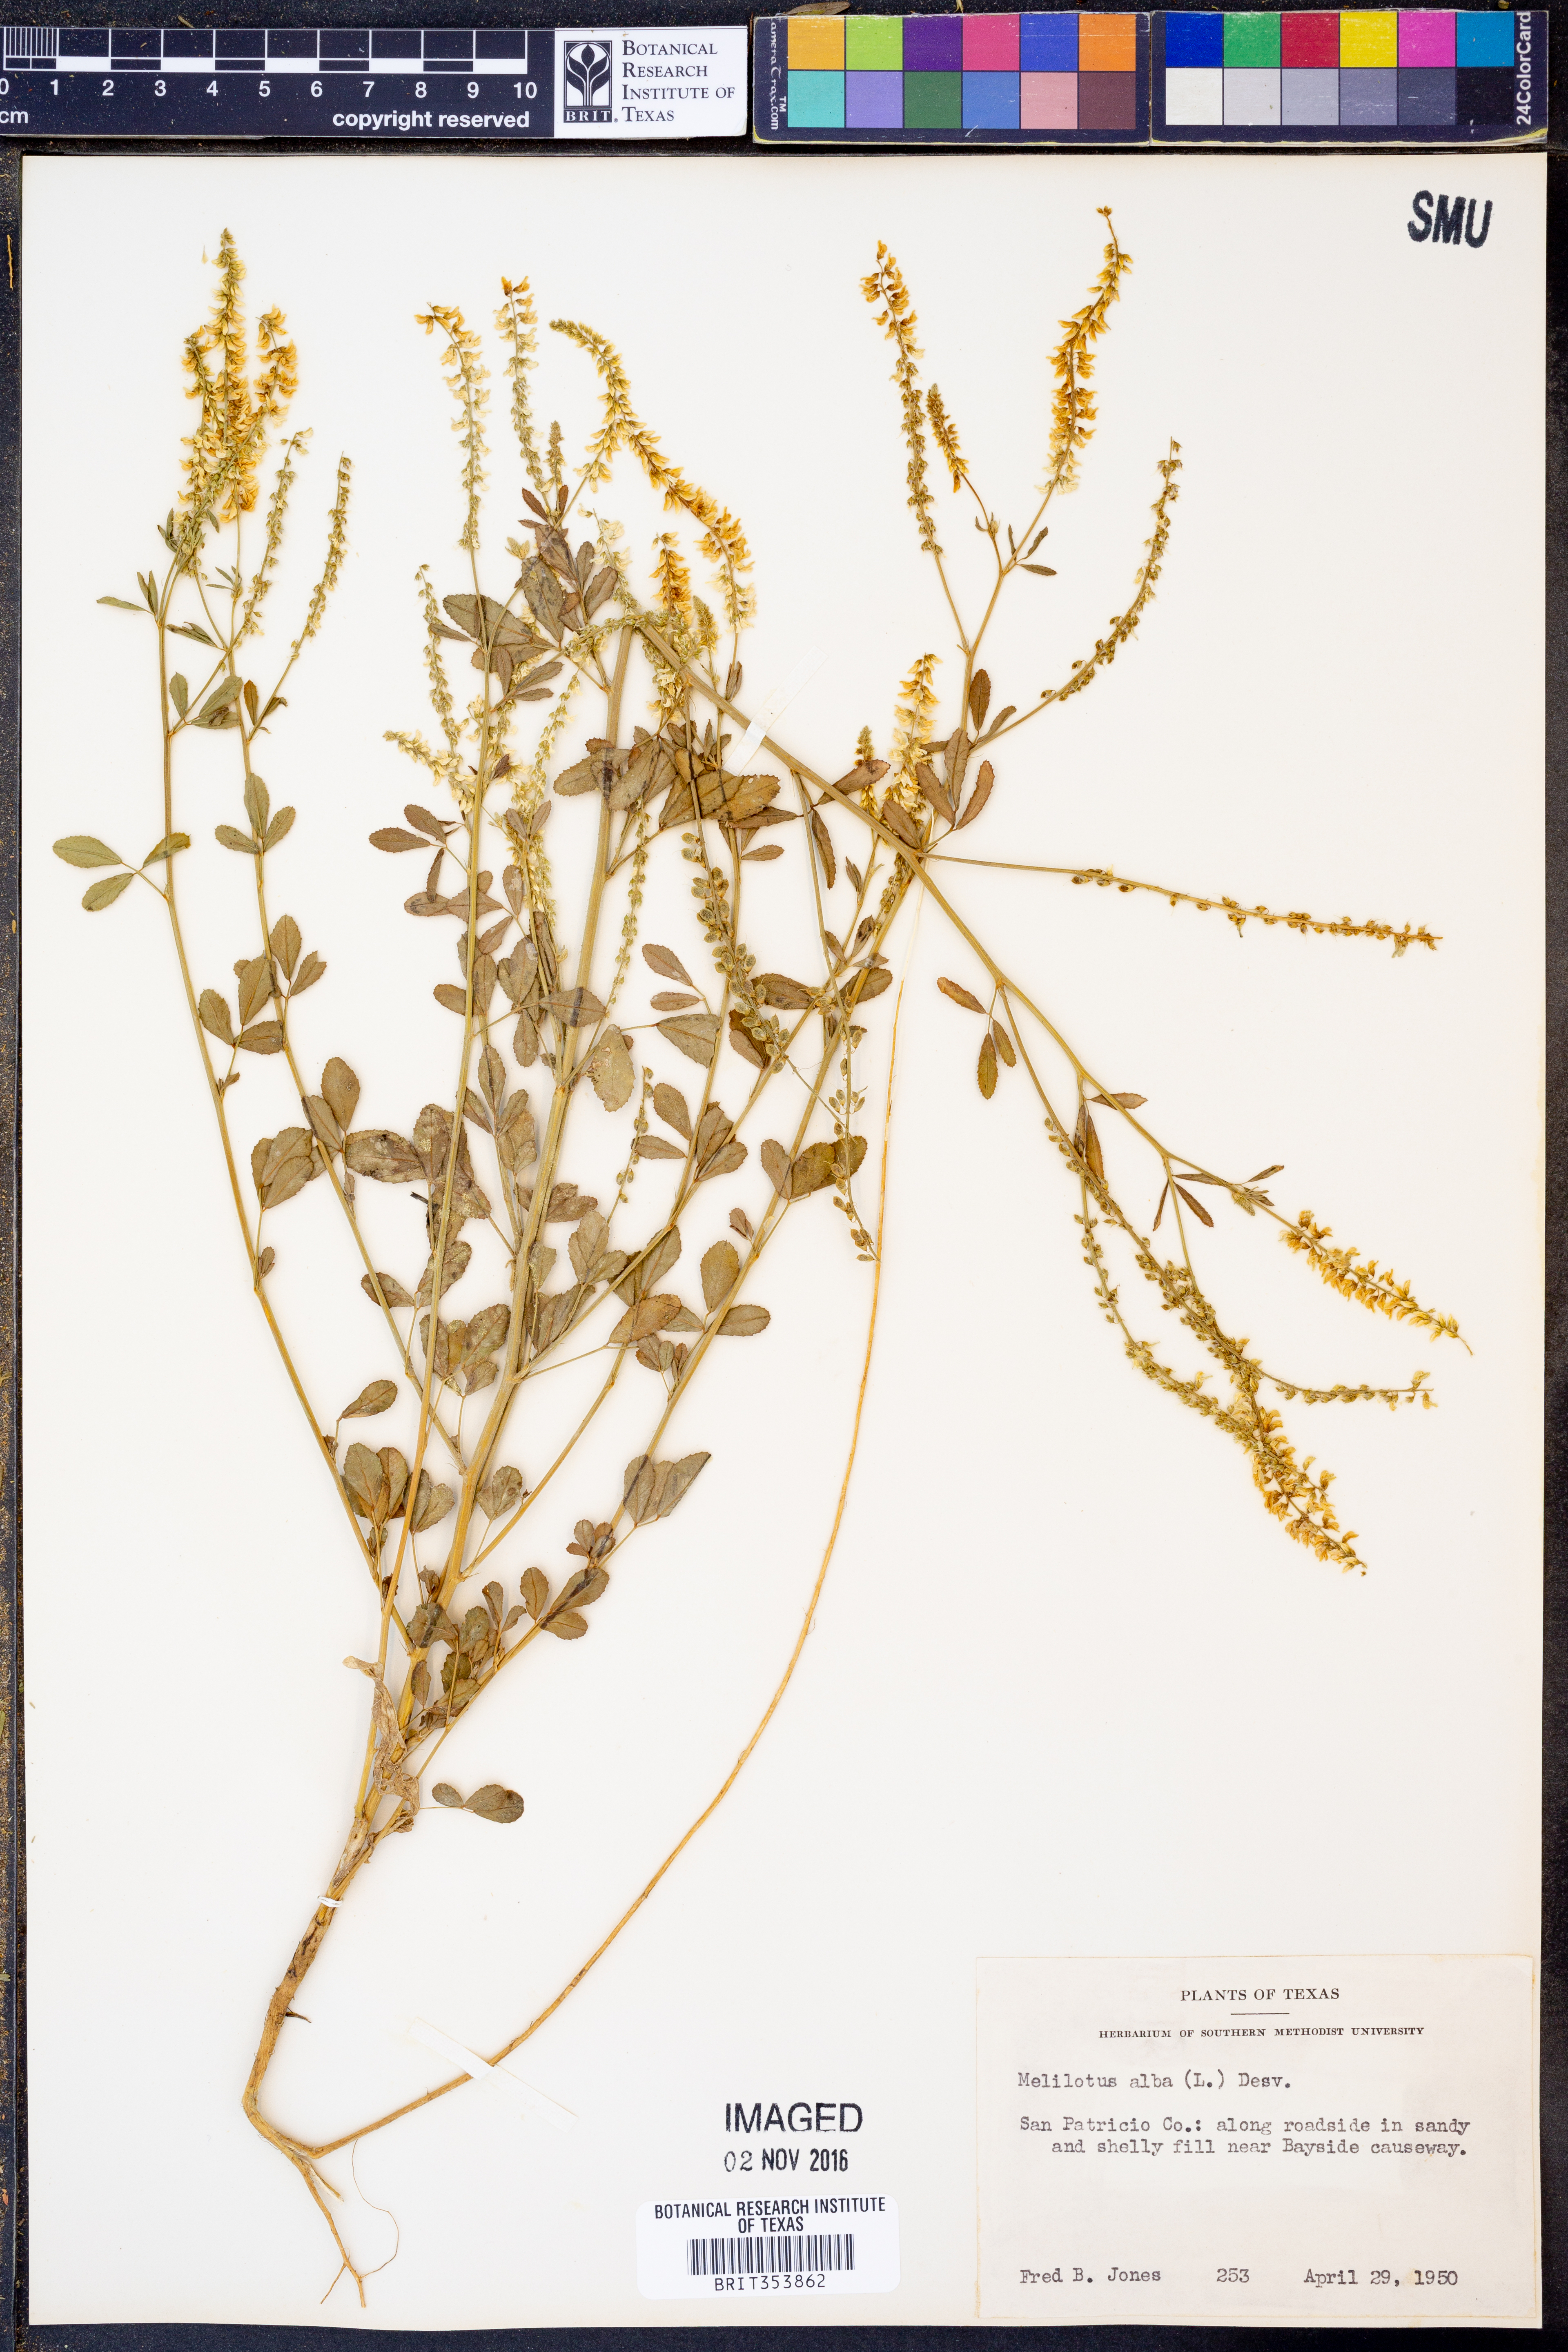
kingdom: Plantae
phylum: Tracheophyta
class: Magnoliopsida
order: Fabales
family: Fabaceae
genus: Melilotus
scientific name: Melilotus albus
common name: White melilot
